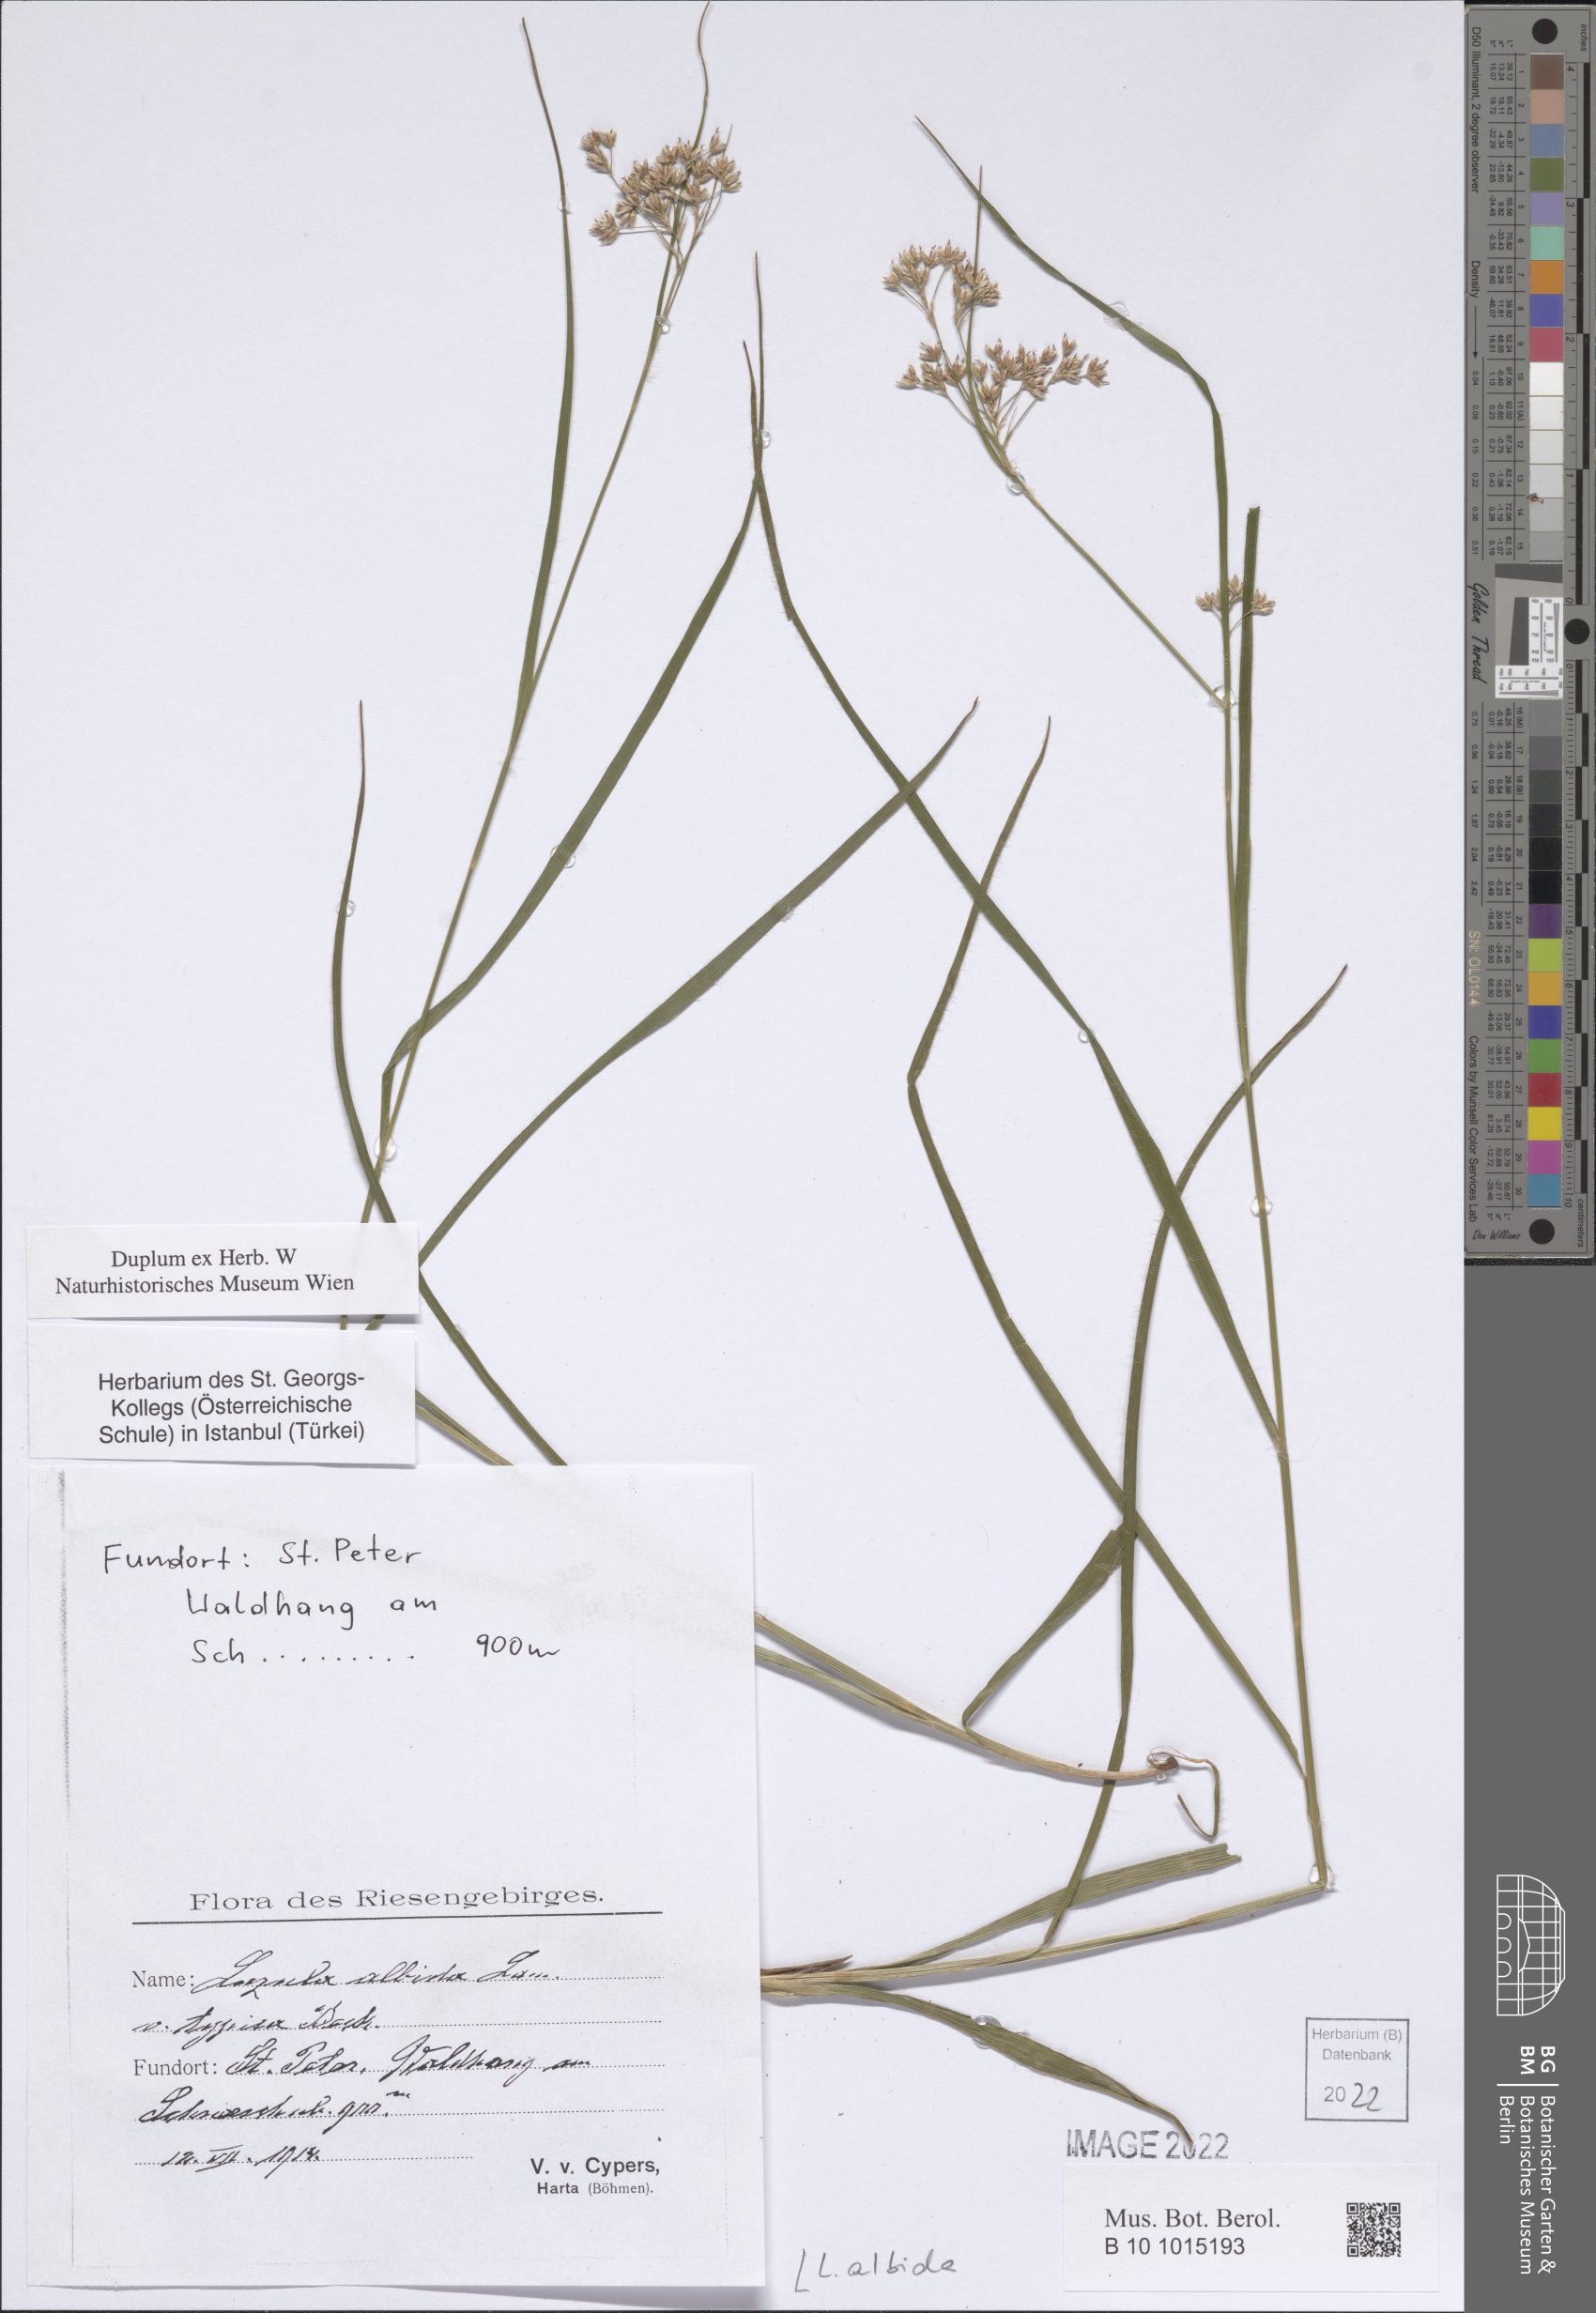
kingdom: Plantae
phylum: Tracheophyta
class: Liliopsida
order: Poales
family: Juncaceae
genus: Luzula
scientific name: Luzula luzuloides
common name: White wood-rush
